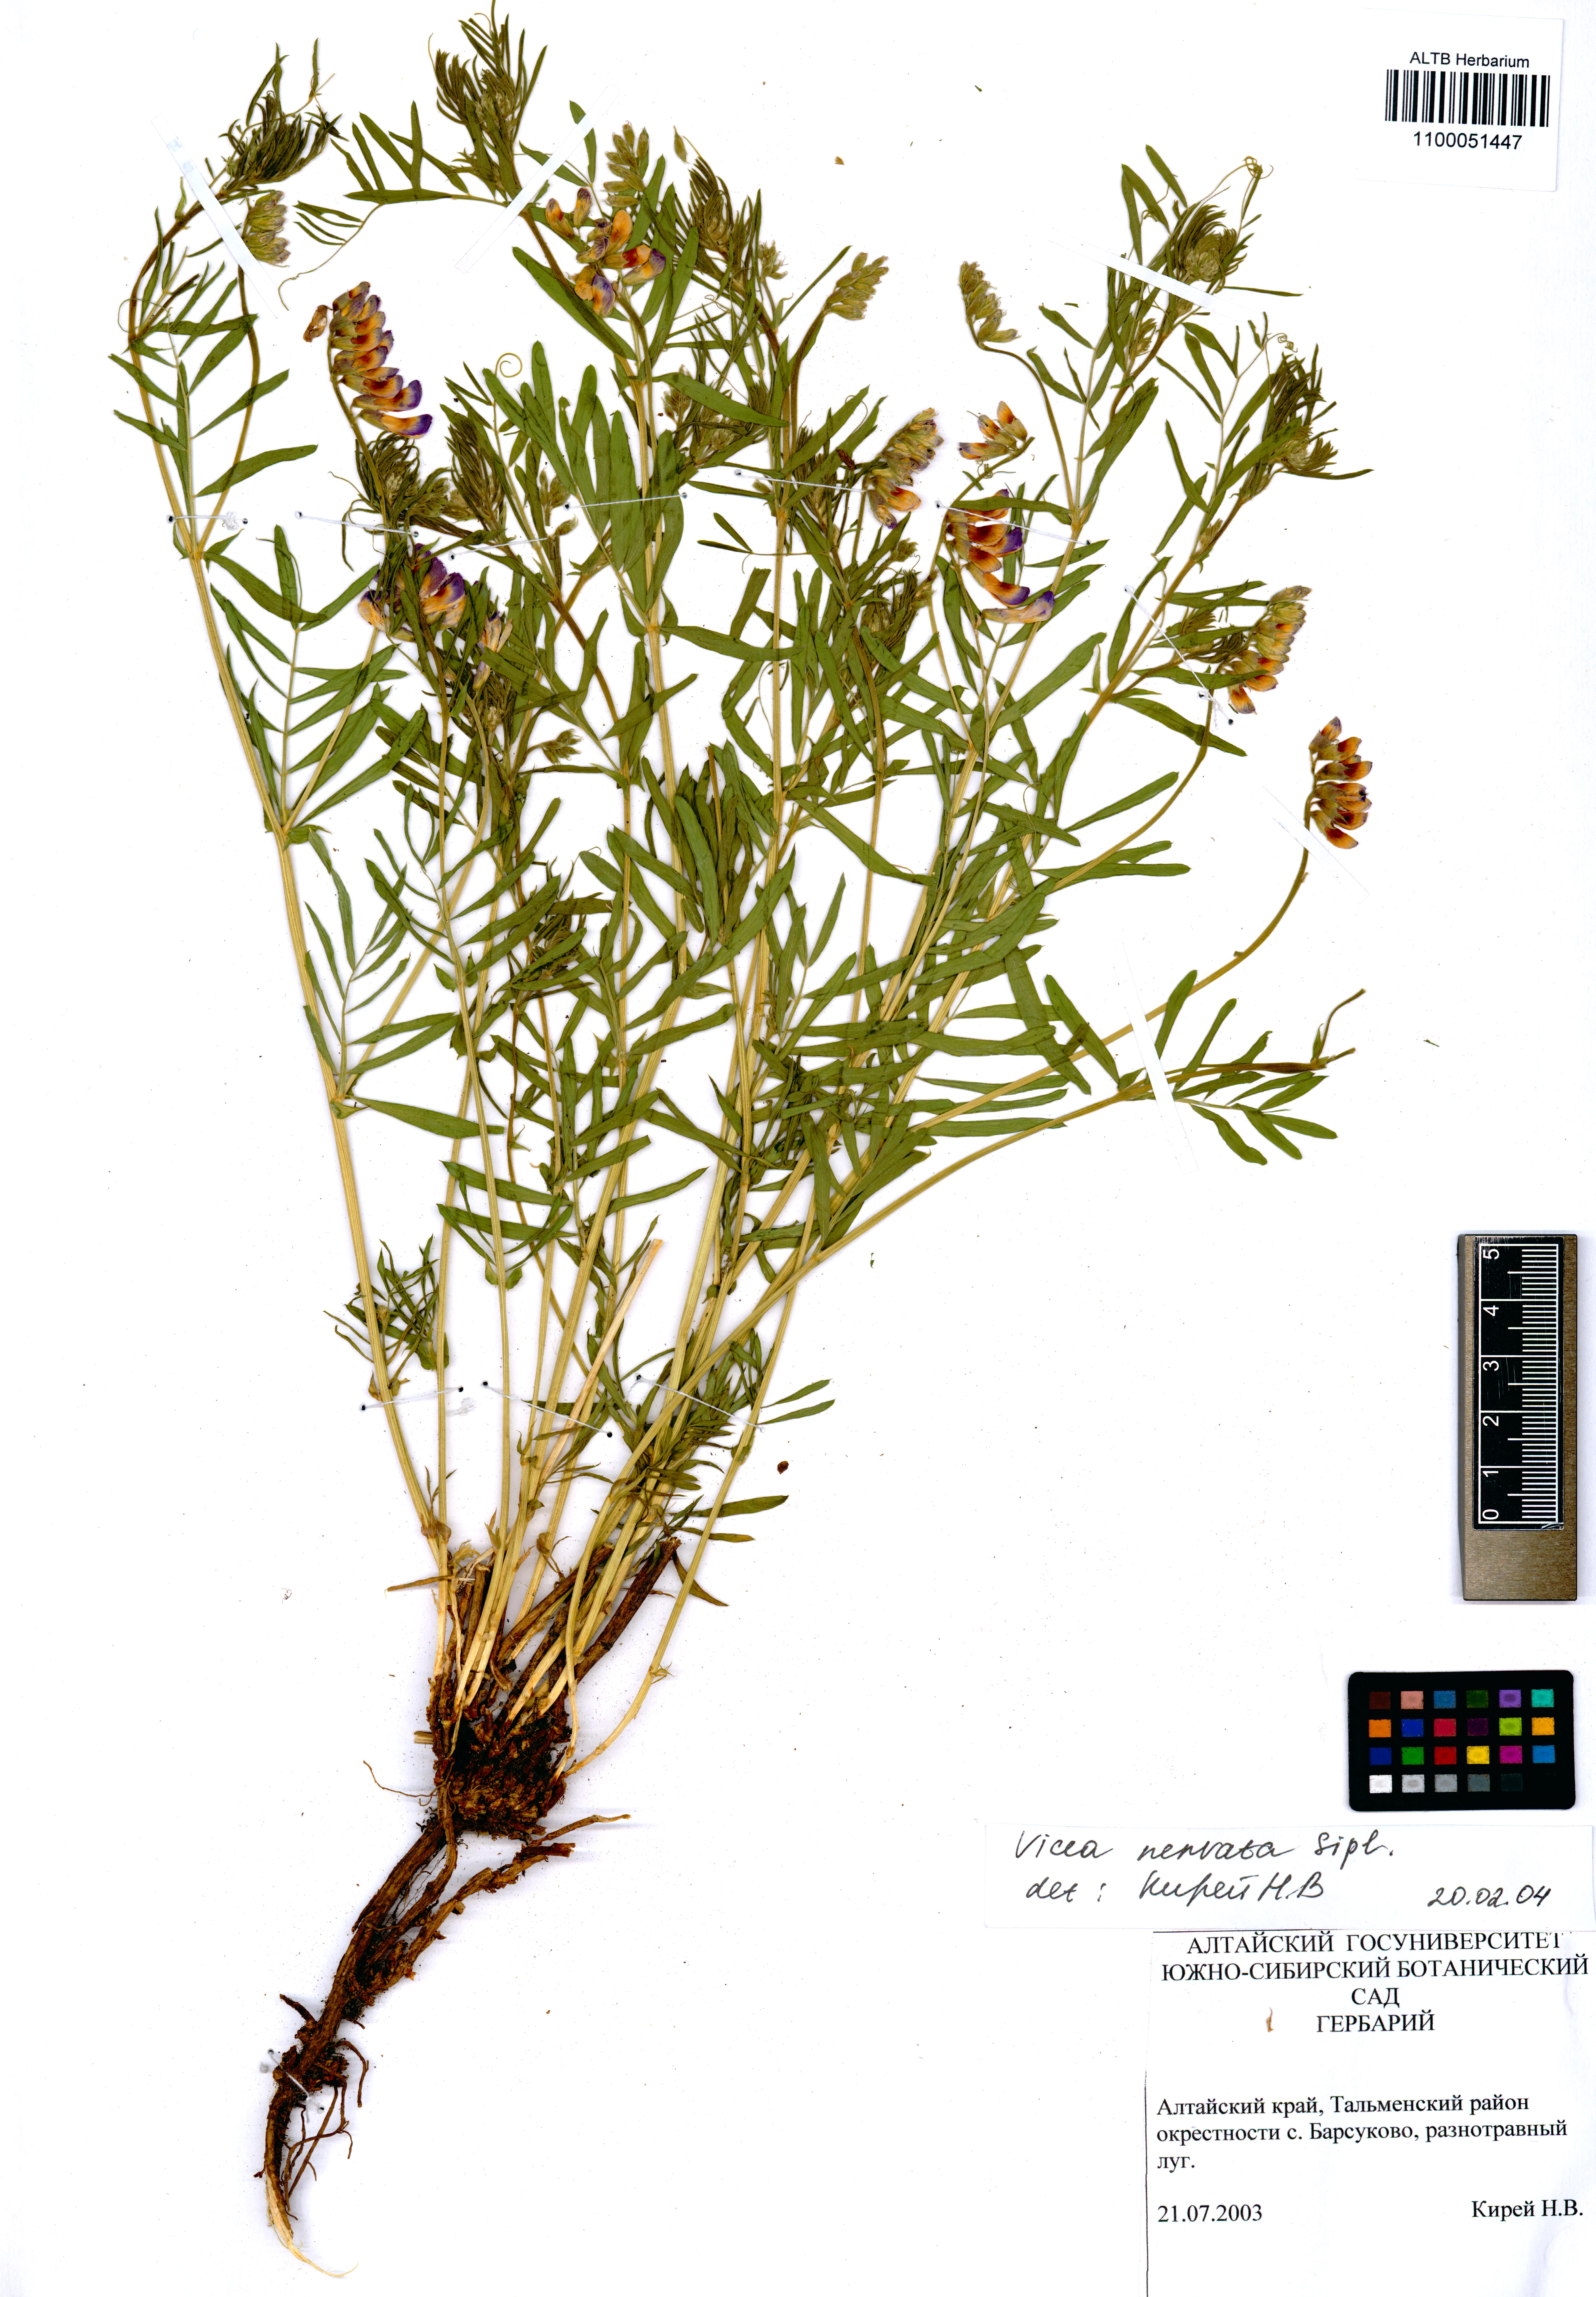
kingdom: Plantae
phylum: Tracheophyta
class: Magnoliopsida
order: Fabales
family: Fabaceae
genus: Vicia
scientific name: Vicia multicaulis
